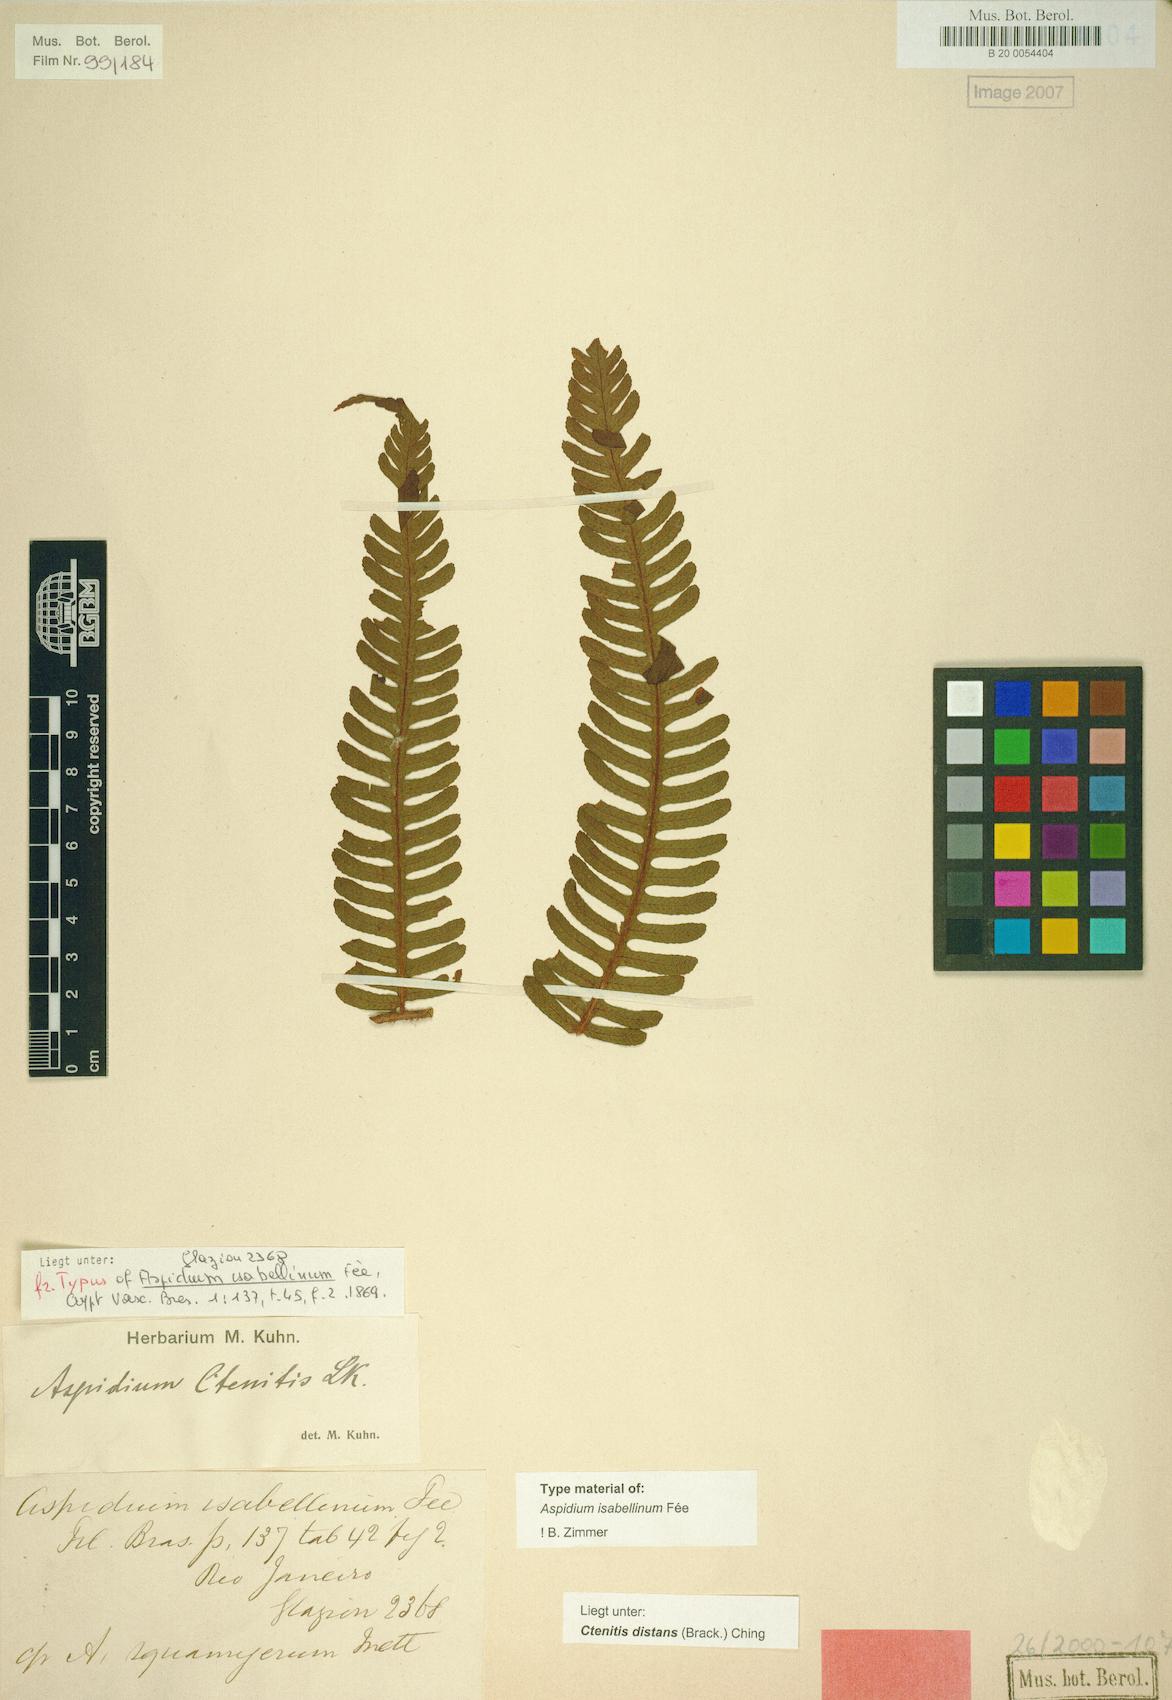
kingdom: Plantae
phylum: Tracheophyta
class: Polypodiopsida
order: Polypodiales
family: Dryopteridaceae
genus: Ctenitis
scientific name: Ctenitis distans
